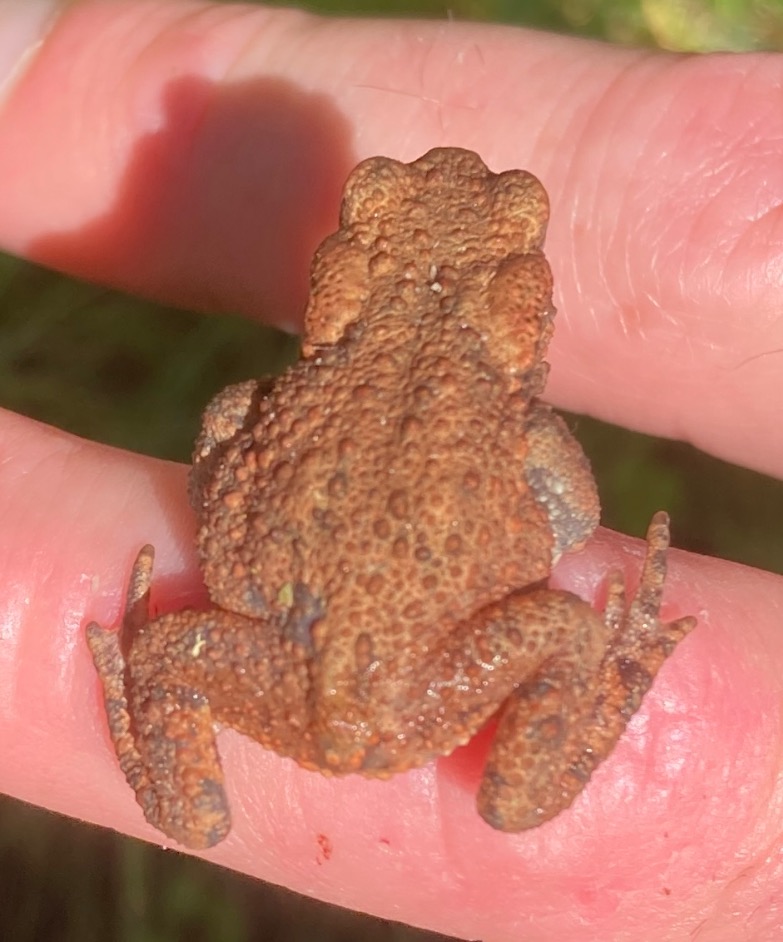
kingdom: Animalia
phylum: Chordata
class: Amphibia
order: Anura
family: Bufonidae
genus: Bufo
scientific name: Bufo bufo
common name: Skrubtudse
